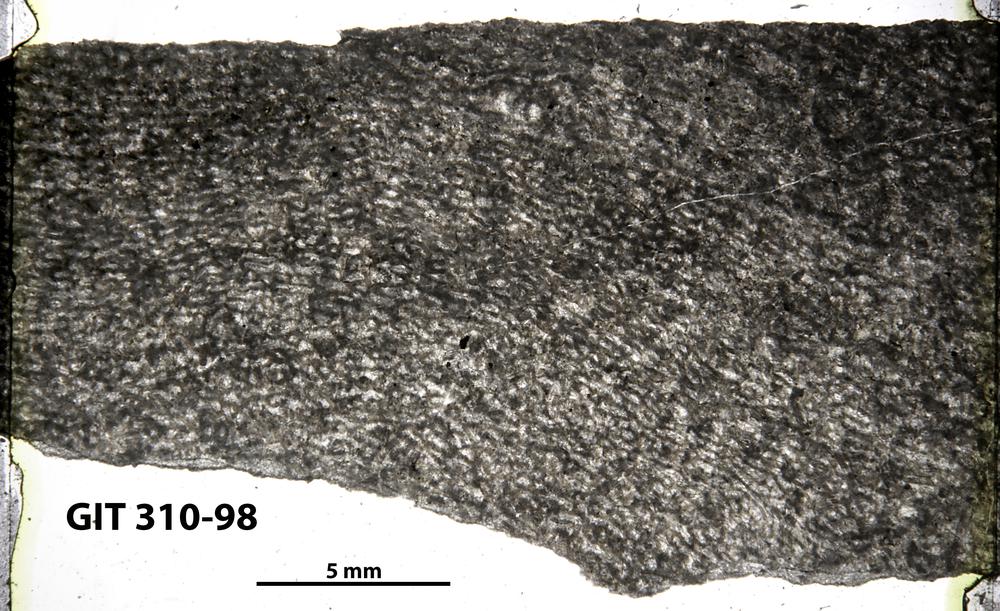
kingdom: Animalia
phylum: Porifera
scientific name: Porifera
